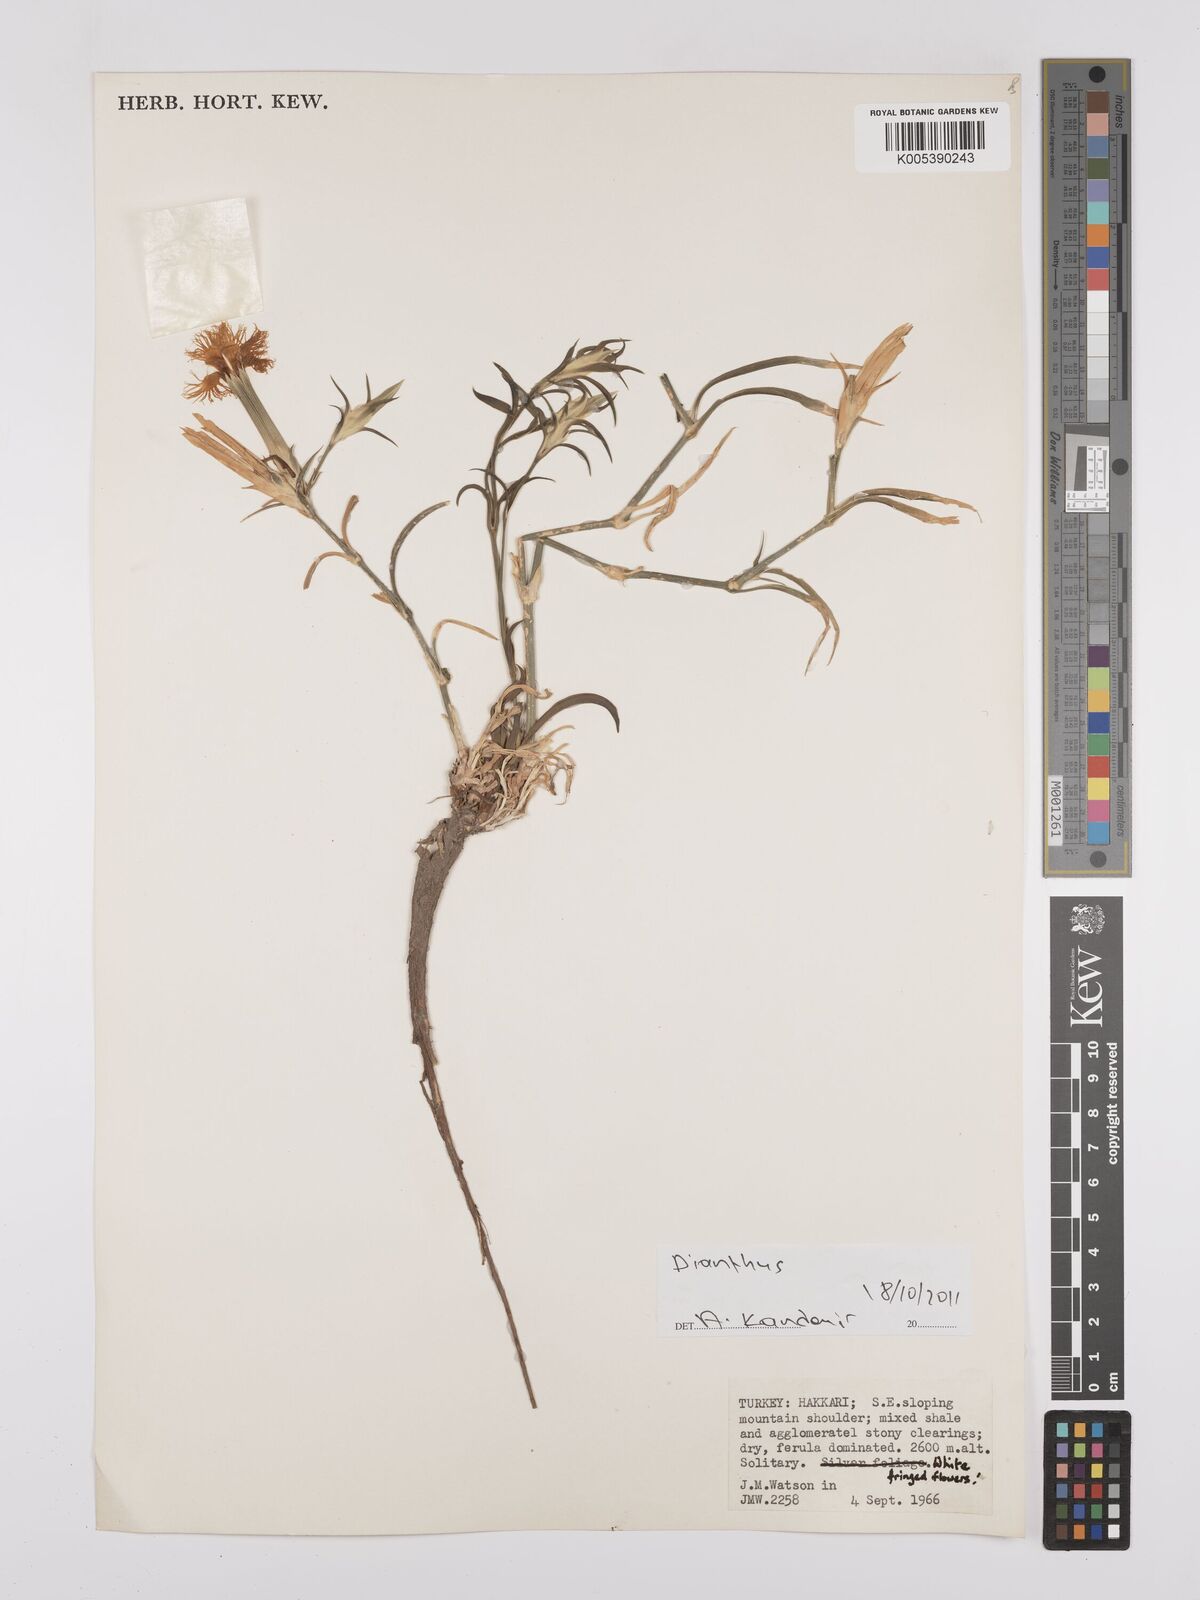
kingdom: Plantae
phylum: Tracheophyta
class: Magnoliopsida
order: Caryophyllales
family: Caryophyllaceae
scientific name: Caryophyllaceae
